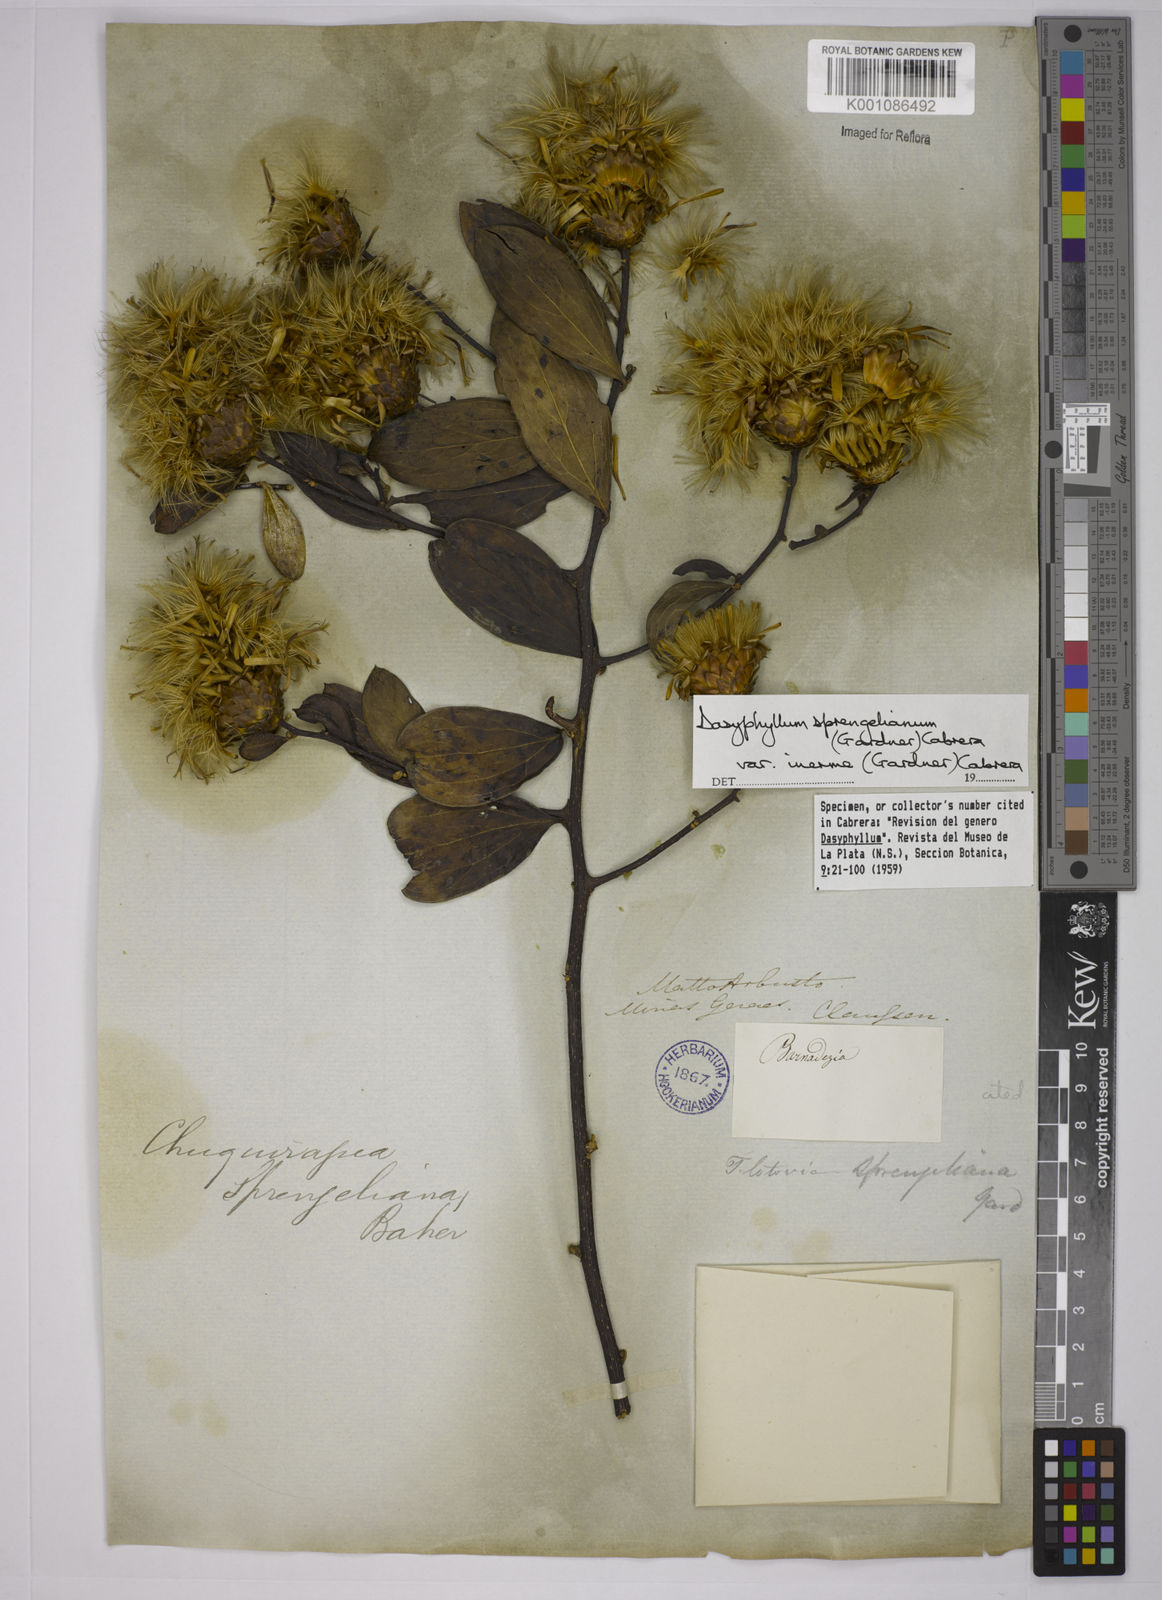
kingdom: Plantae
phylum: Tracheophyta
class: Magnoliopsida
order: Asterales
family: Asteraceae
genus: Dasyphyllum
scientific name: Dasyphyllum sprengelianum
